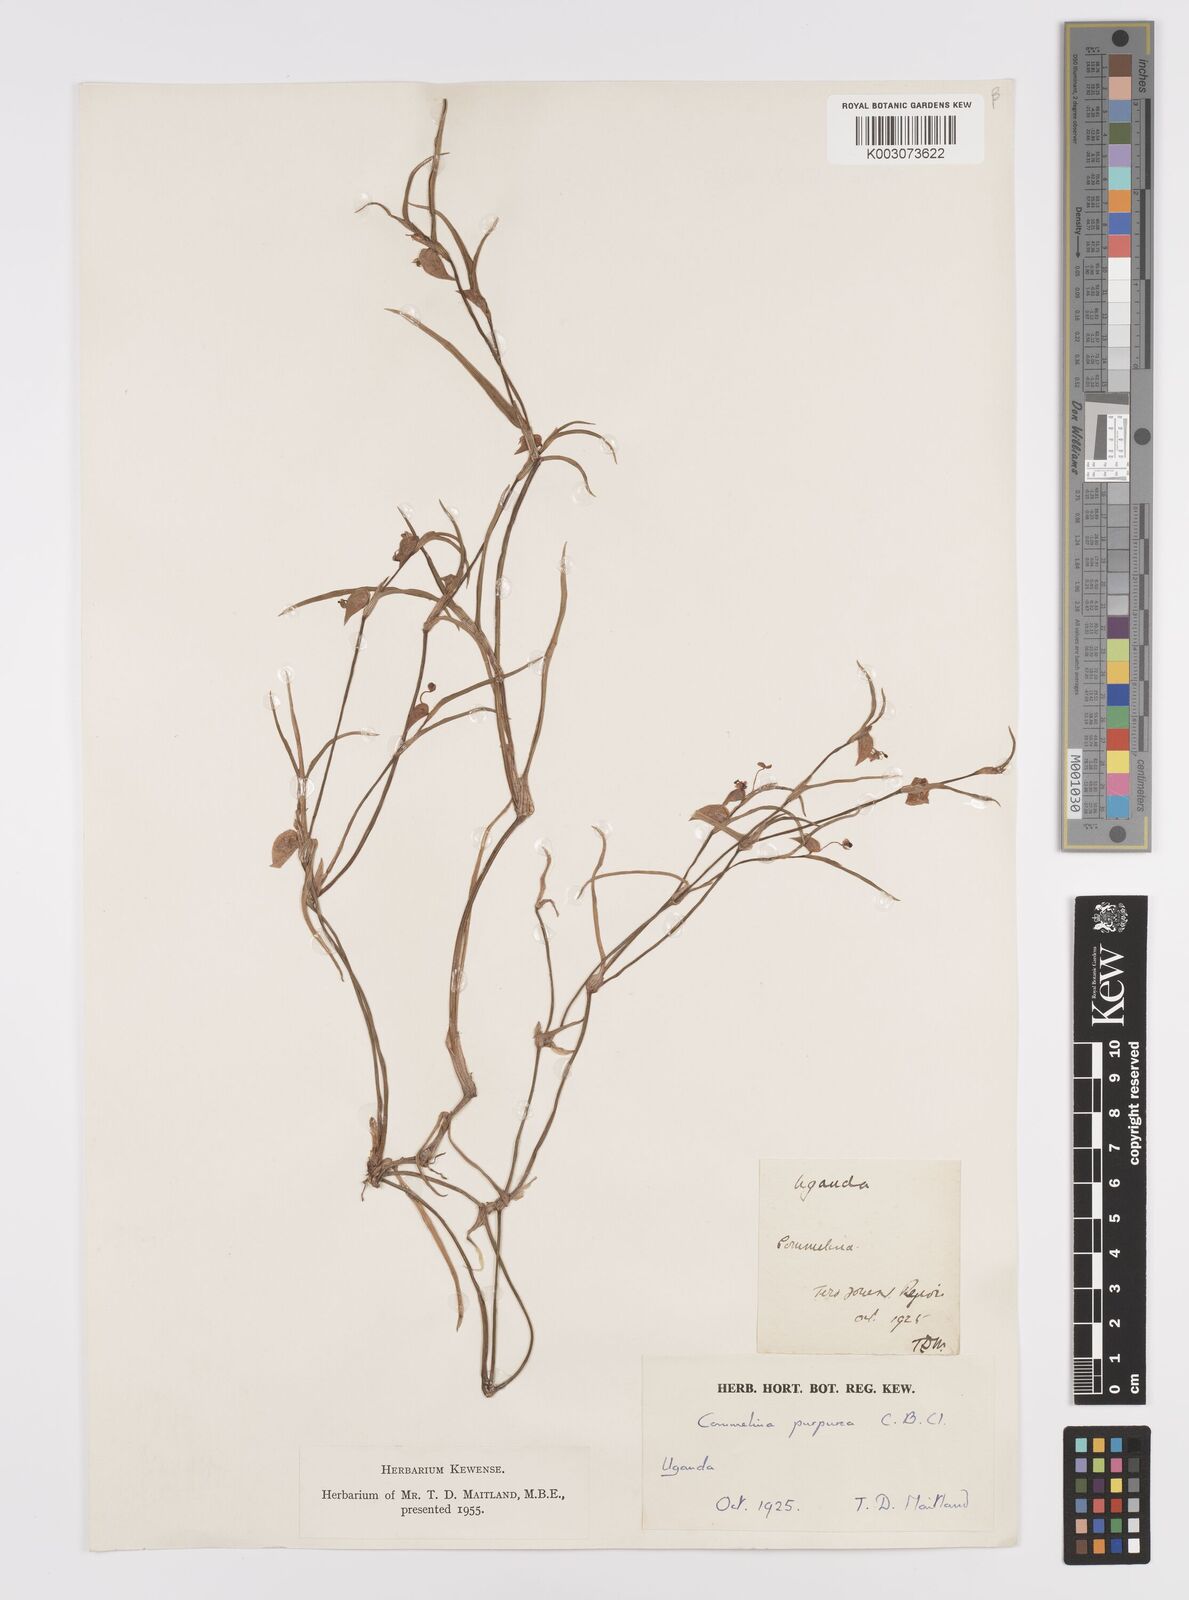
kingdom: Plantae
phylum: Tracheophyta
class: Liliopsida
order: Commelinales
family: Commelinaceae
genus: Commelina
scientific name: Commelina purpurea
